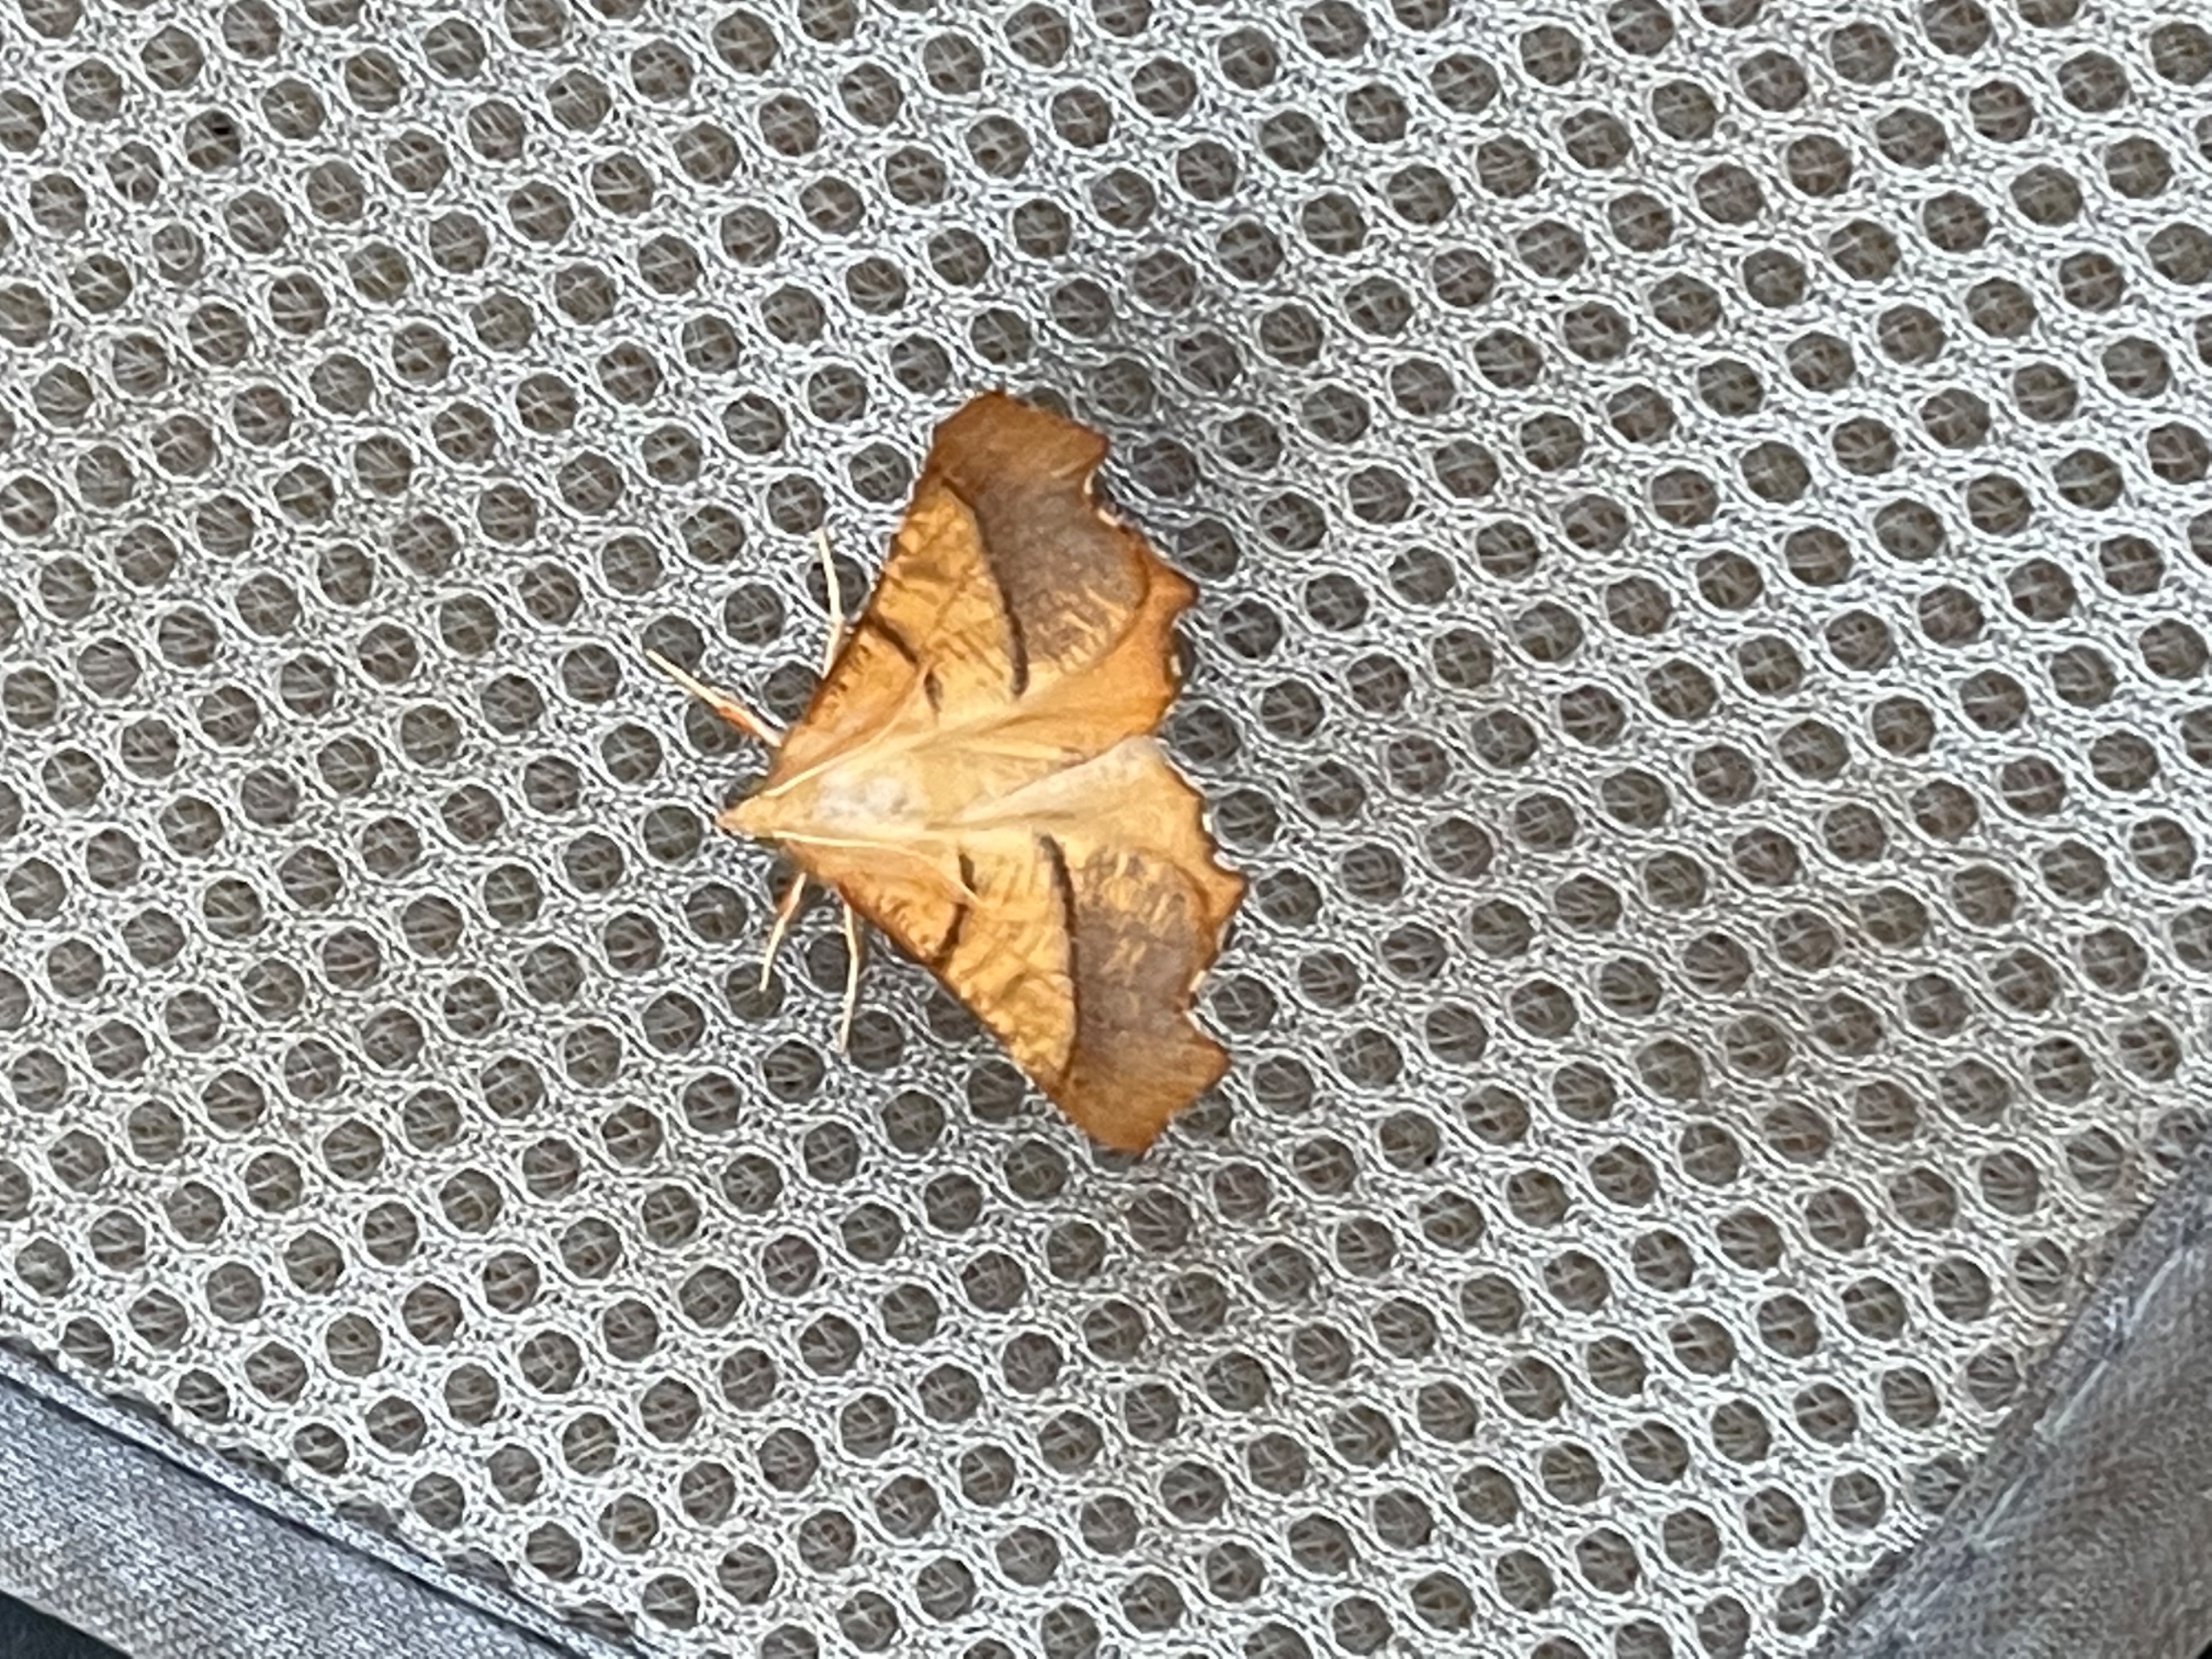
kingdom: Animalia
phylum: Arthropoda
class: Insecta
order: Lepidoptera
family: Geometridae
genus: Ennomos
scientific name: Ennomos fuscantaria
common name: Asketandmåler
